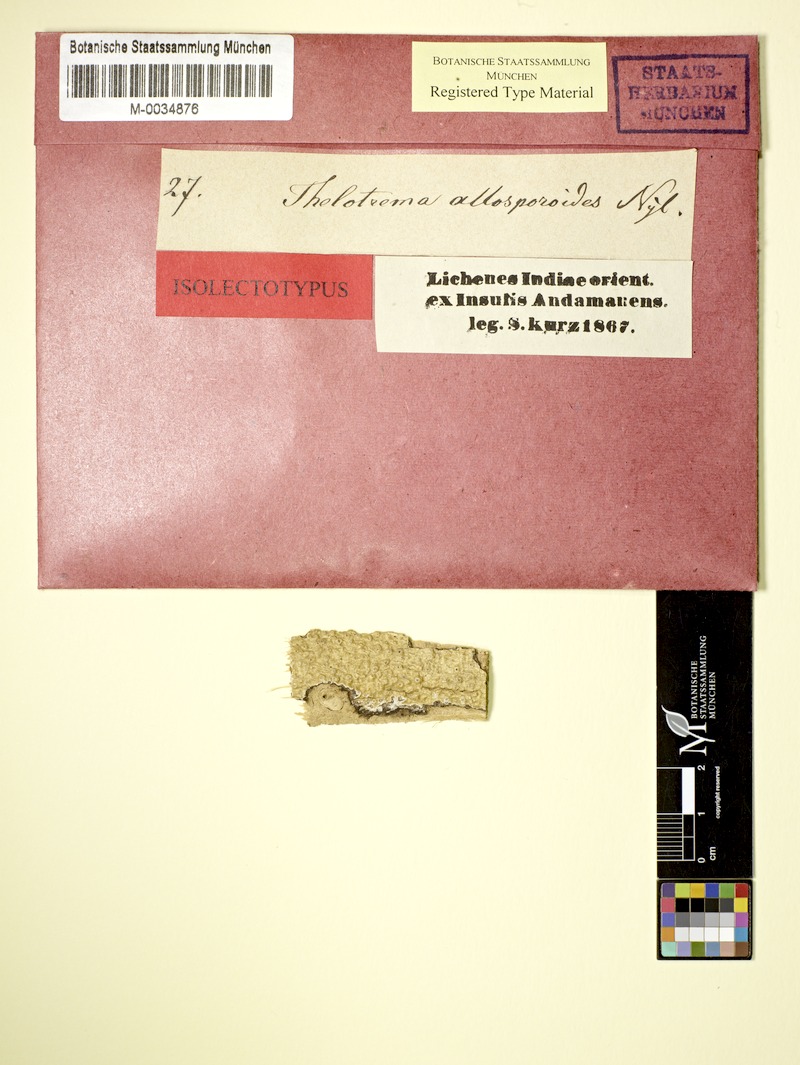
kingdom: Fungi
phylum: Ascomycota
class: Lecanoromycetes
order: Ostropales
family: Graphidaceae
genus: Thelotrema
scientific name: Thelotrema allosporoides
